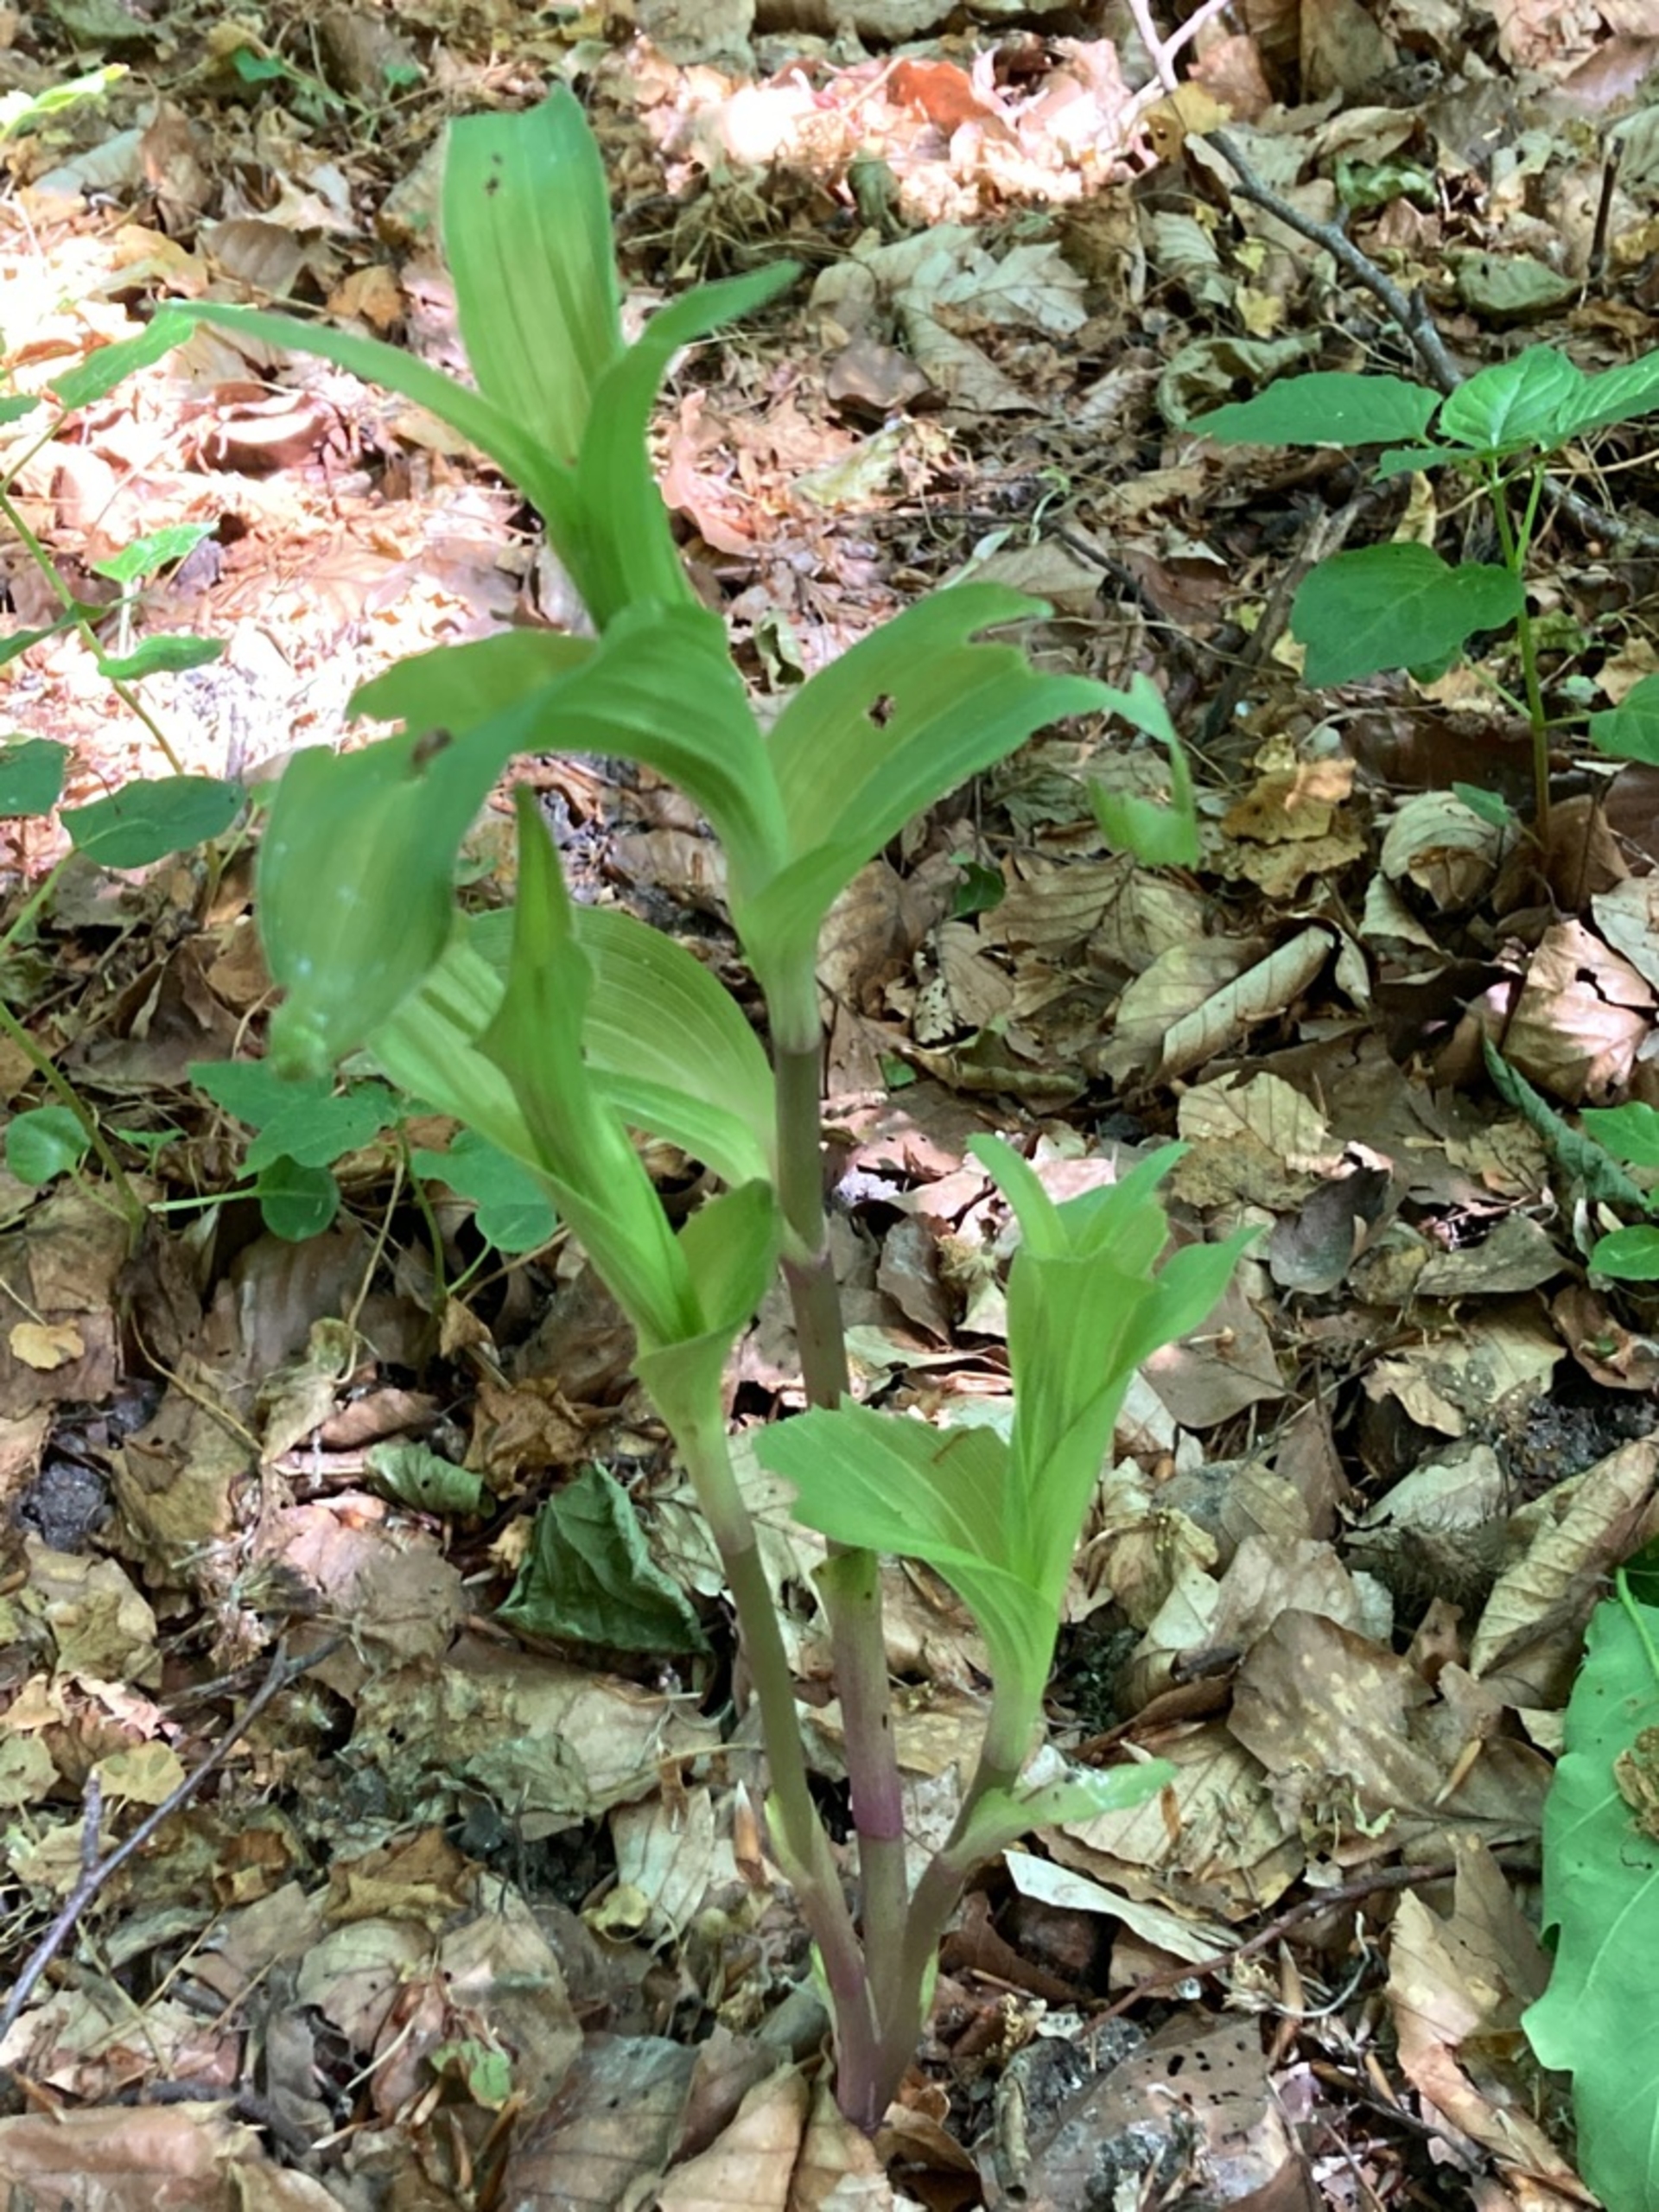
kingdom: Plantae
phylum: Tracheophyta
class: Liliopsida
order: Asparagales
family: Orchidaceae
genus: Epipactis
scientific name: Epipactis helleborine
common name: Skov-hullæbe
